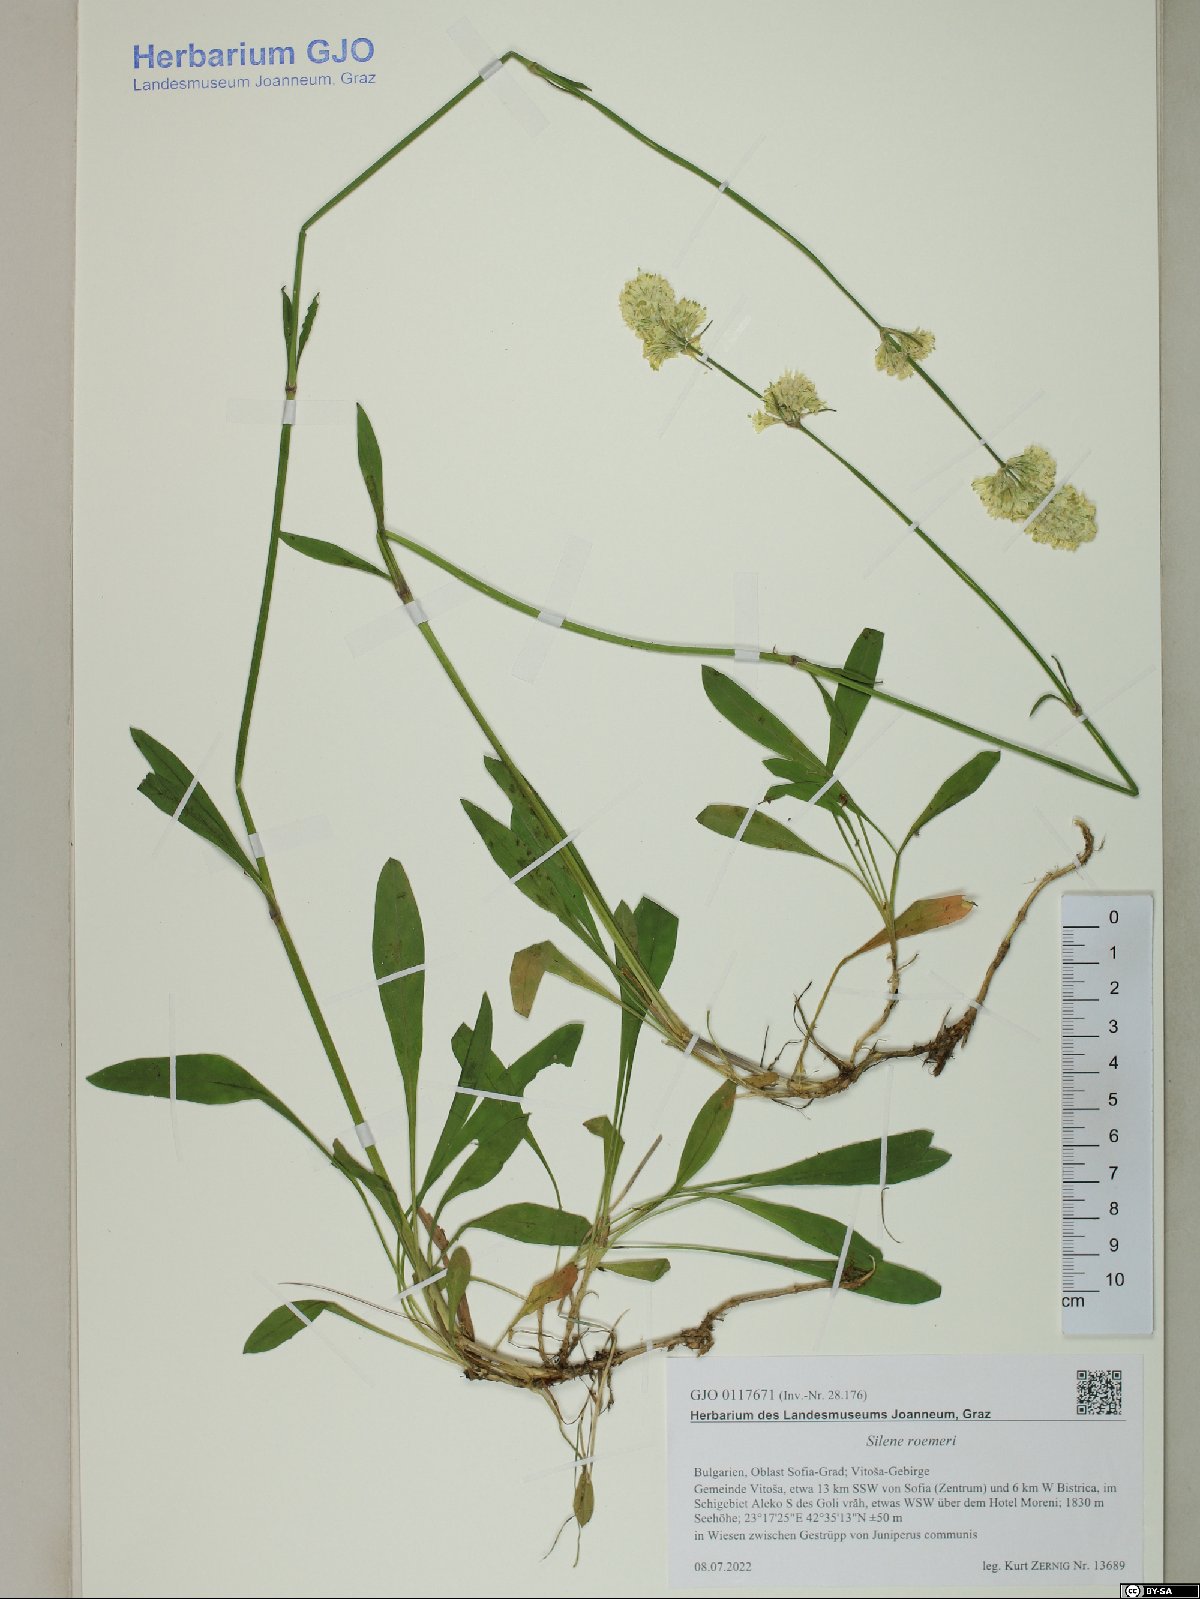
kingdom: Plantae
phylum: Tracheophyta
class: Magnoliopsida
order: Caryophyllales
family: Caryophyllaceae
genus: Silene
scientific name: Silene roemeri
